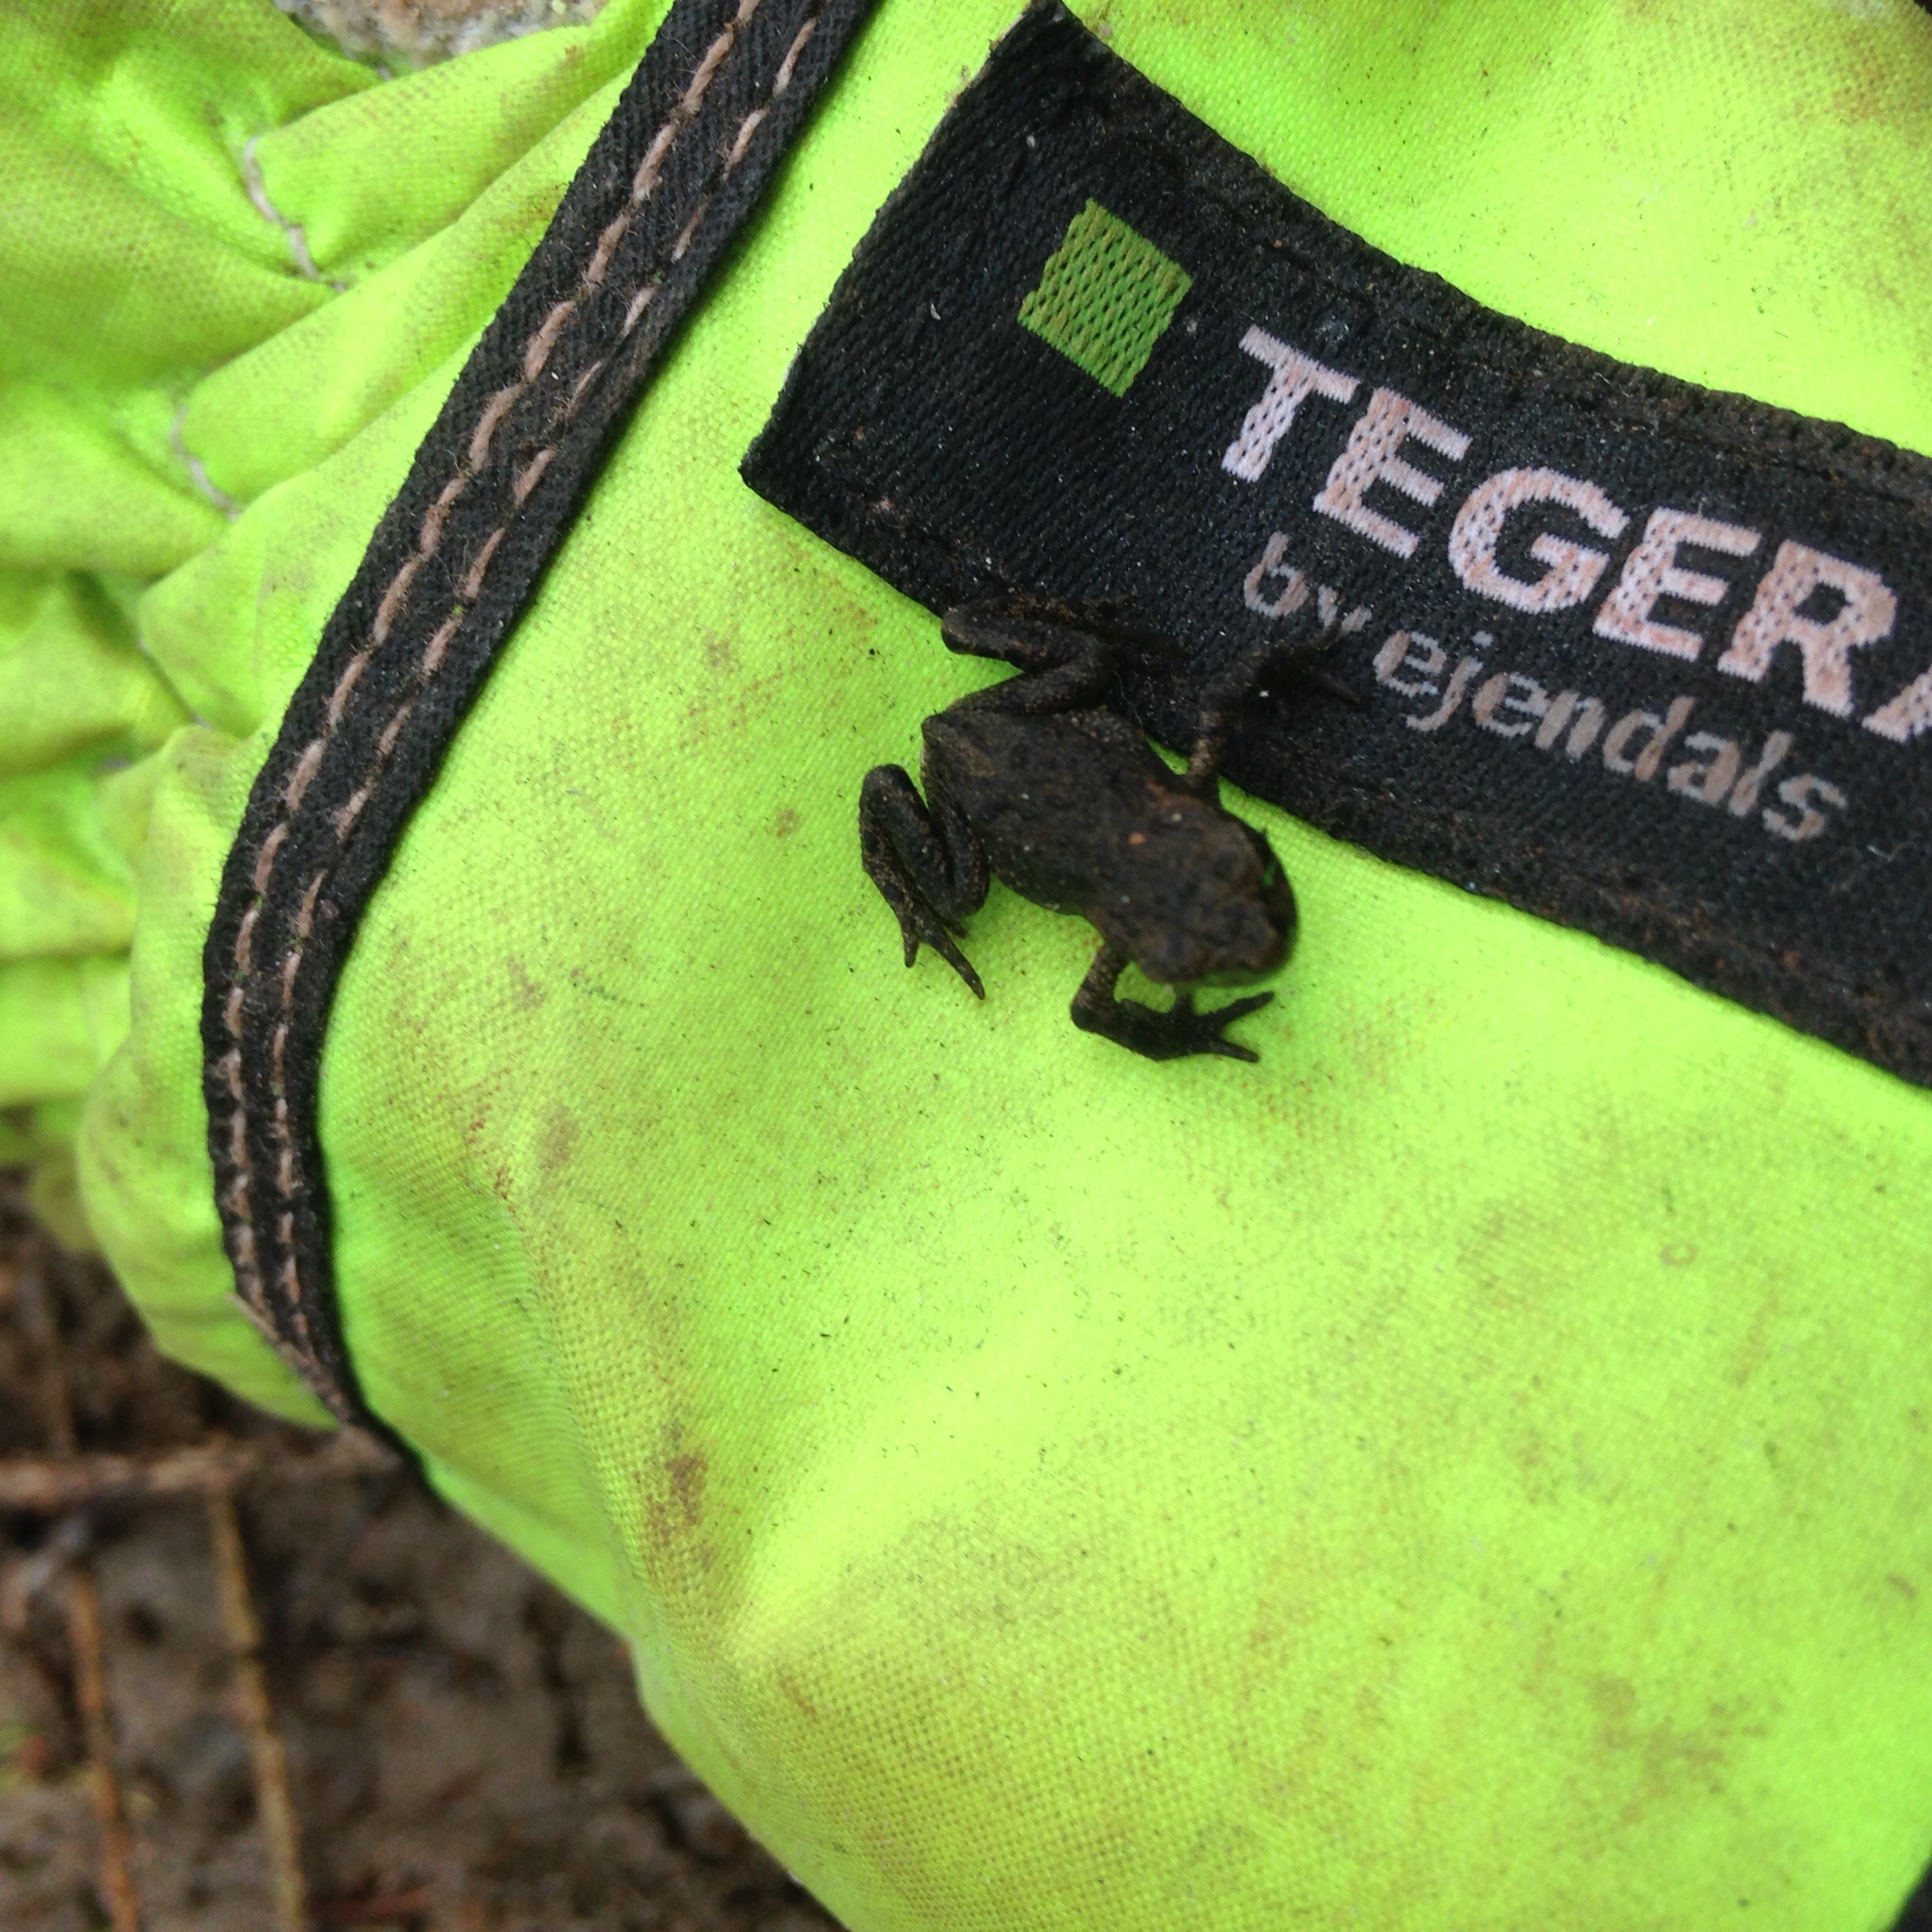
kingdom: Animalia
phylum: Chordata
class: Amphibia
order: Anura
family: Ranidae
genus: Rana
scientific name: Rana temporaria
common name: Common frog
